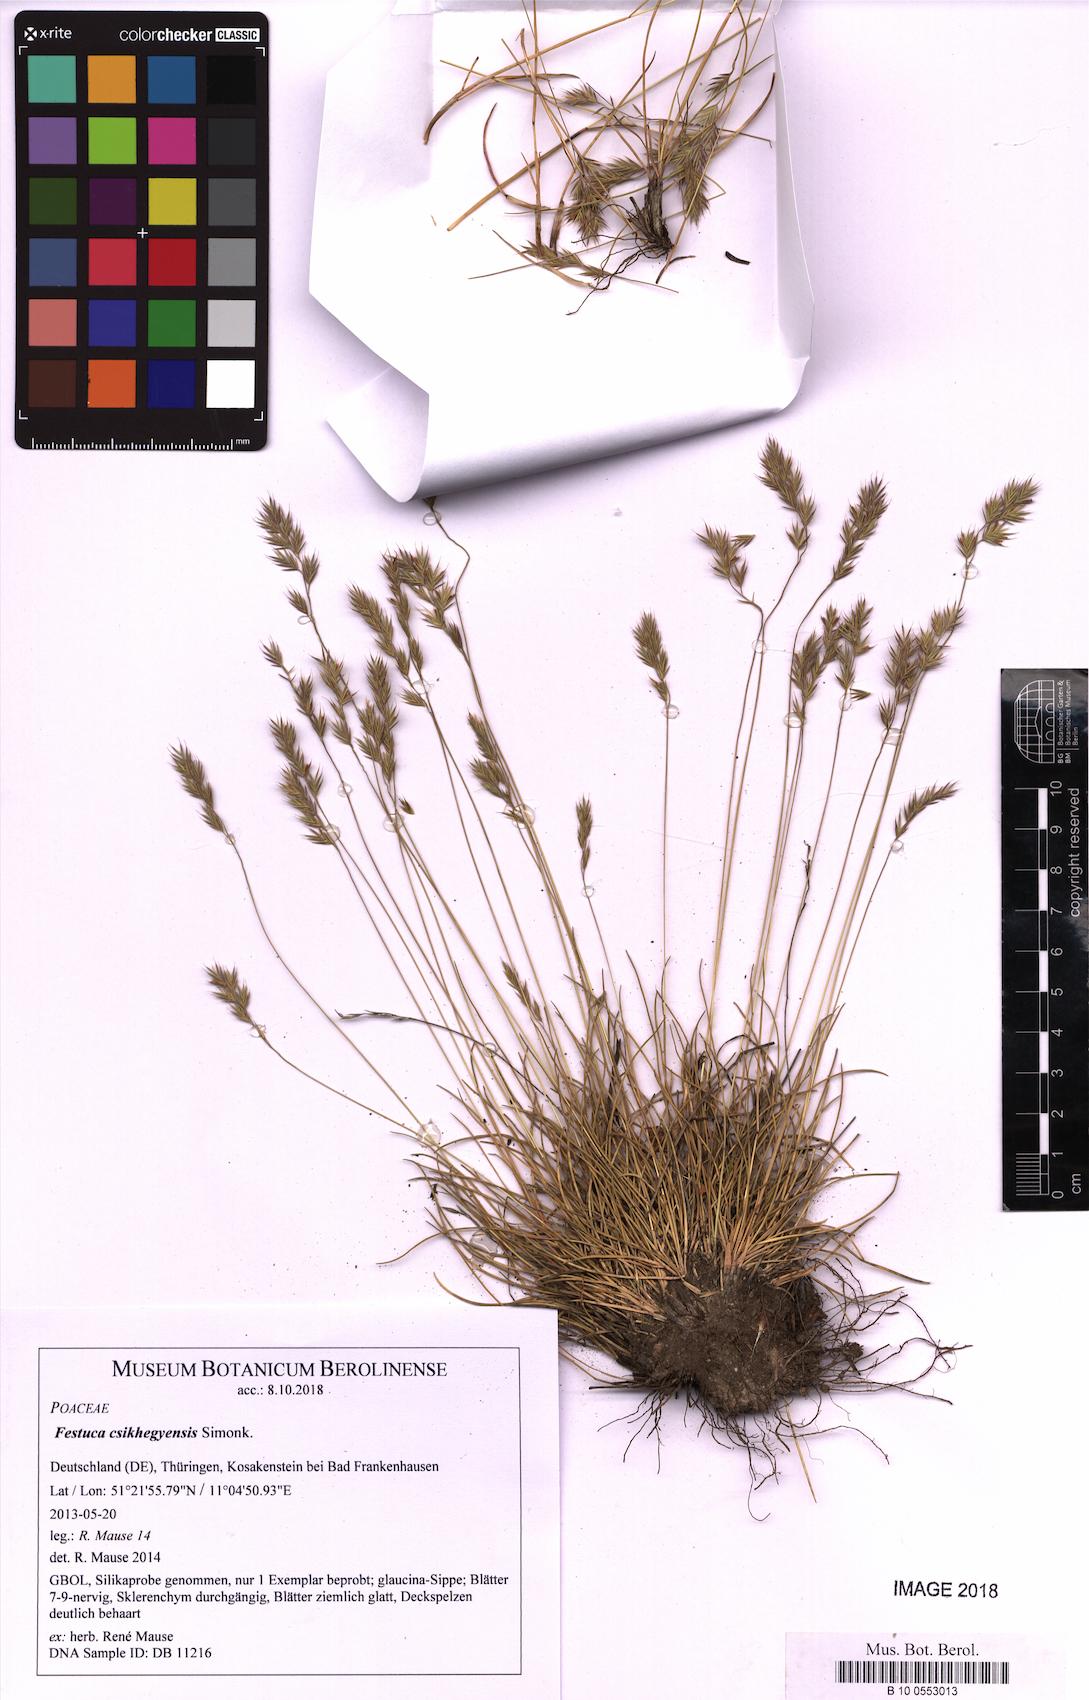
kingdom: Plantae
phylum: Tracheophyta
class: Liliopsida
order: Poales
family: Poaceae
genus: Festuca
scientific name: Festuca csikhegyensis
